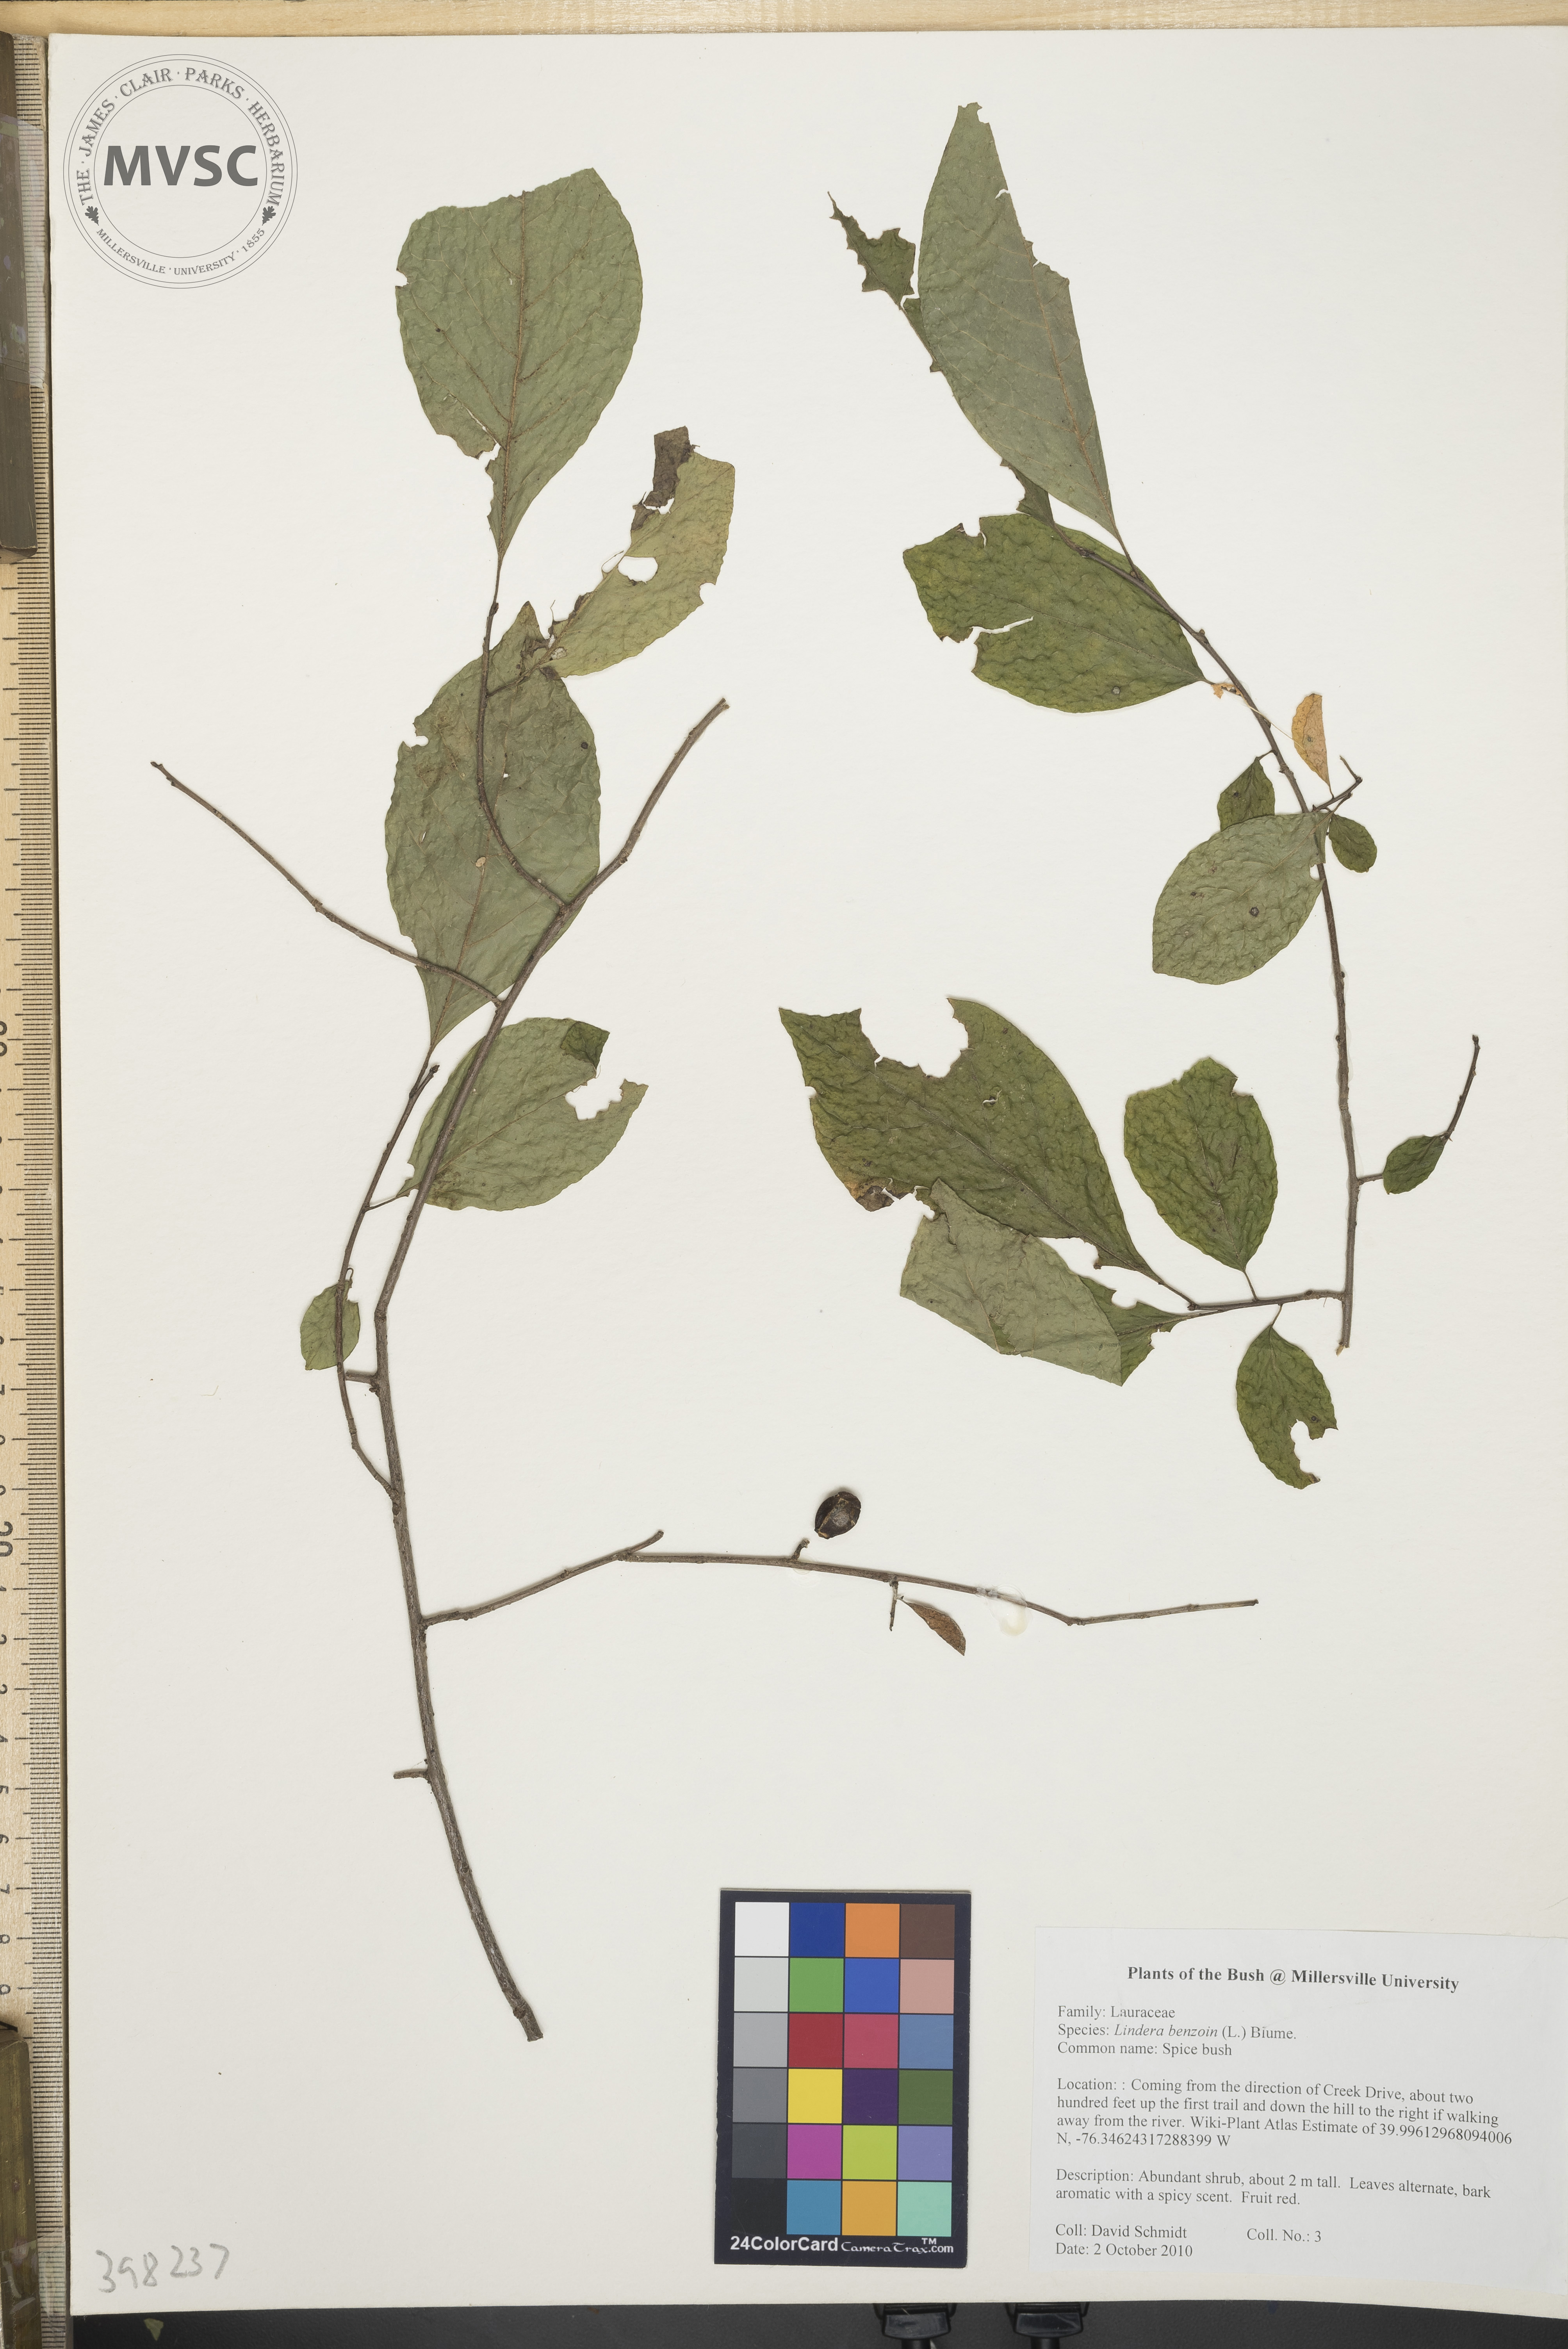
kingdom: Plantae
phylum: Tracheophyta
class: Magnoliopsida
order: Laurales
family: Lauraceae
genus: Lindera
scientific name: Lindera benzoin
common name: Spicebush
